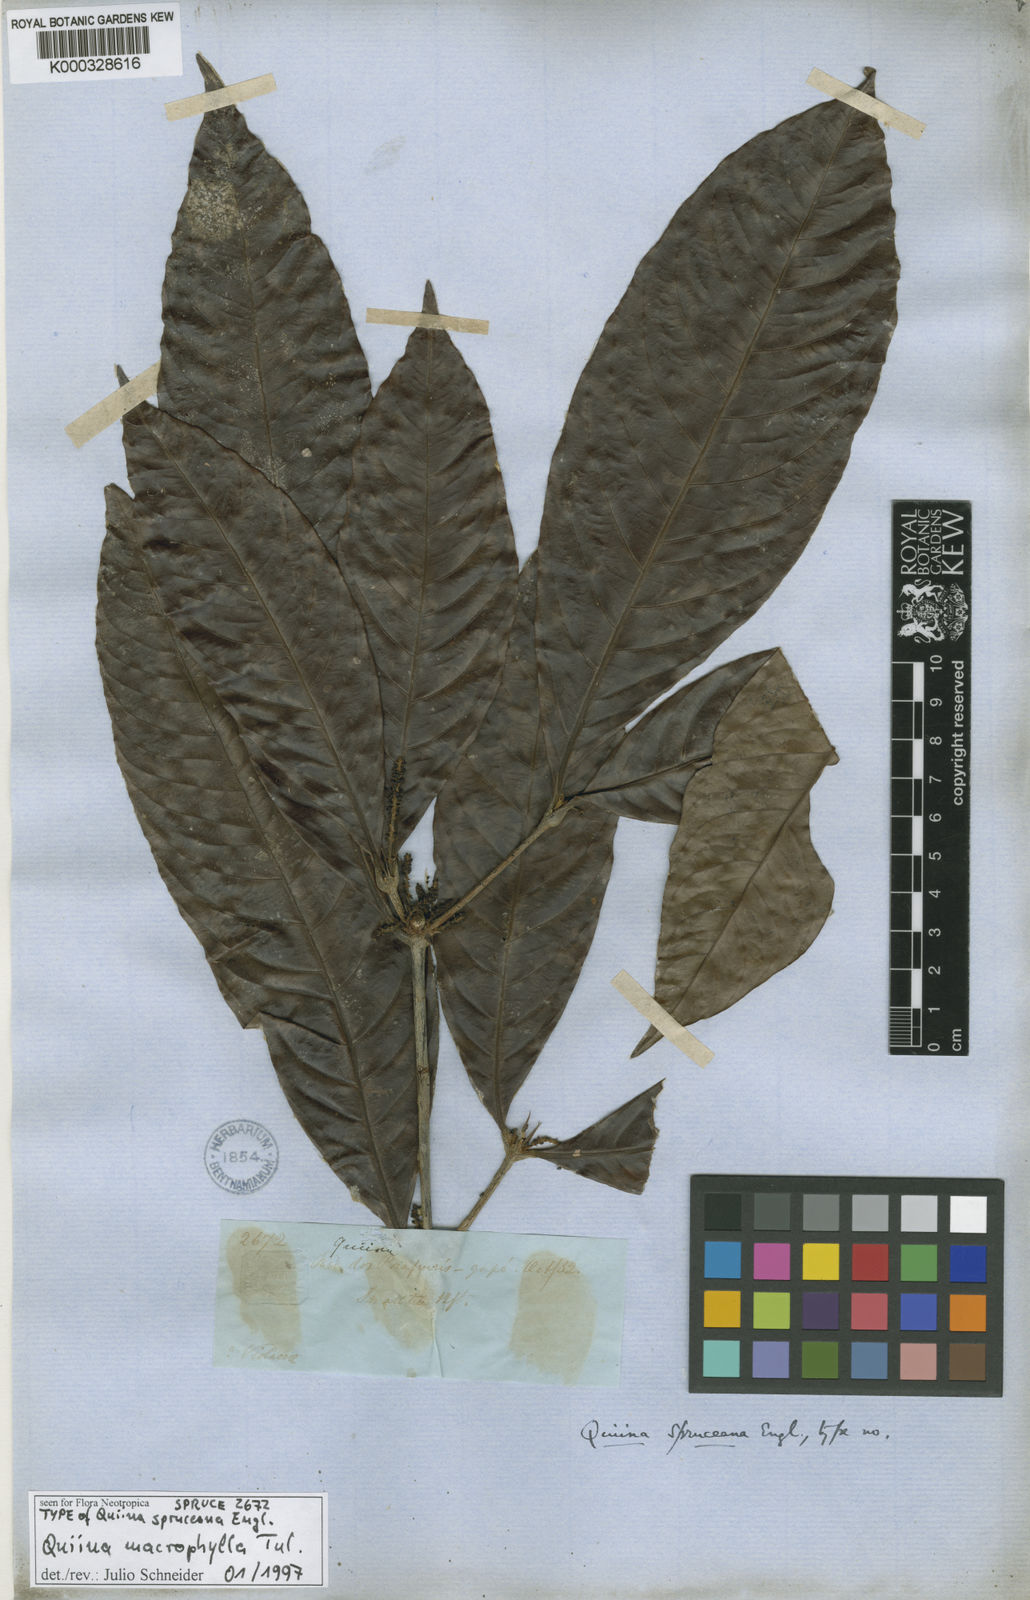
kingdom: Plantae
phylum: Tracheophyta
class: Magnoliopsida
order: Malpighiales
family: Quiinaceae
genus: Quiina
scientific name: Quiina macrophylla
